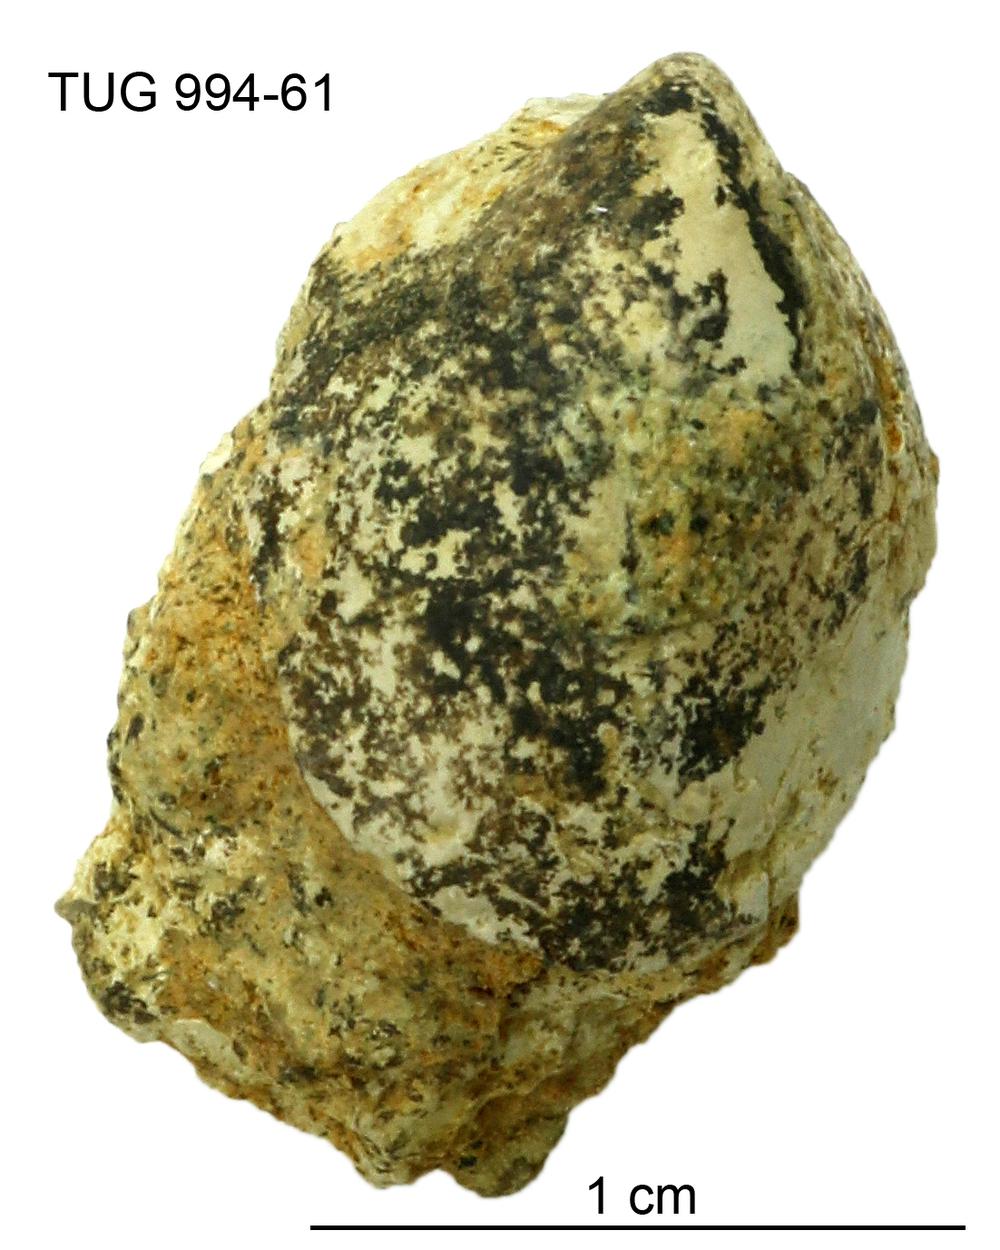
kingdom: Animalia
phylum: Mollusca
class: Gastropoda
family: Archinacellidae
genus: Archinacella
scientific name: Archinacella Metoptoma melissa
